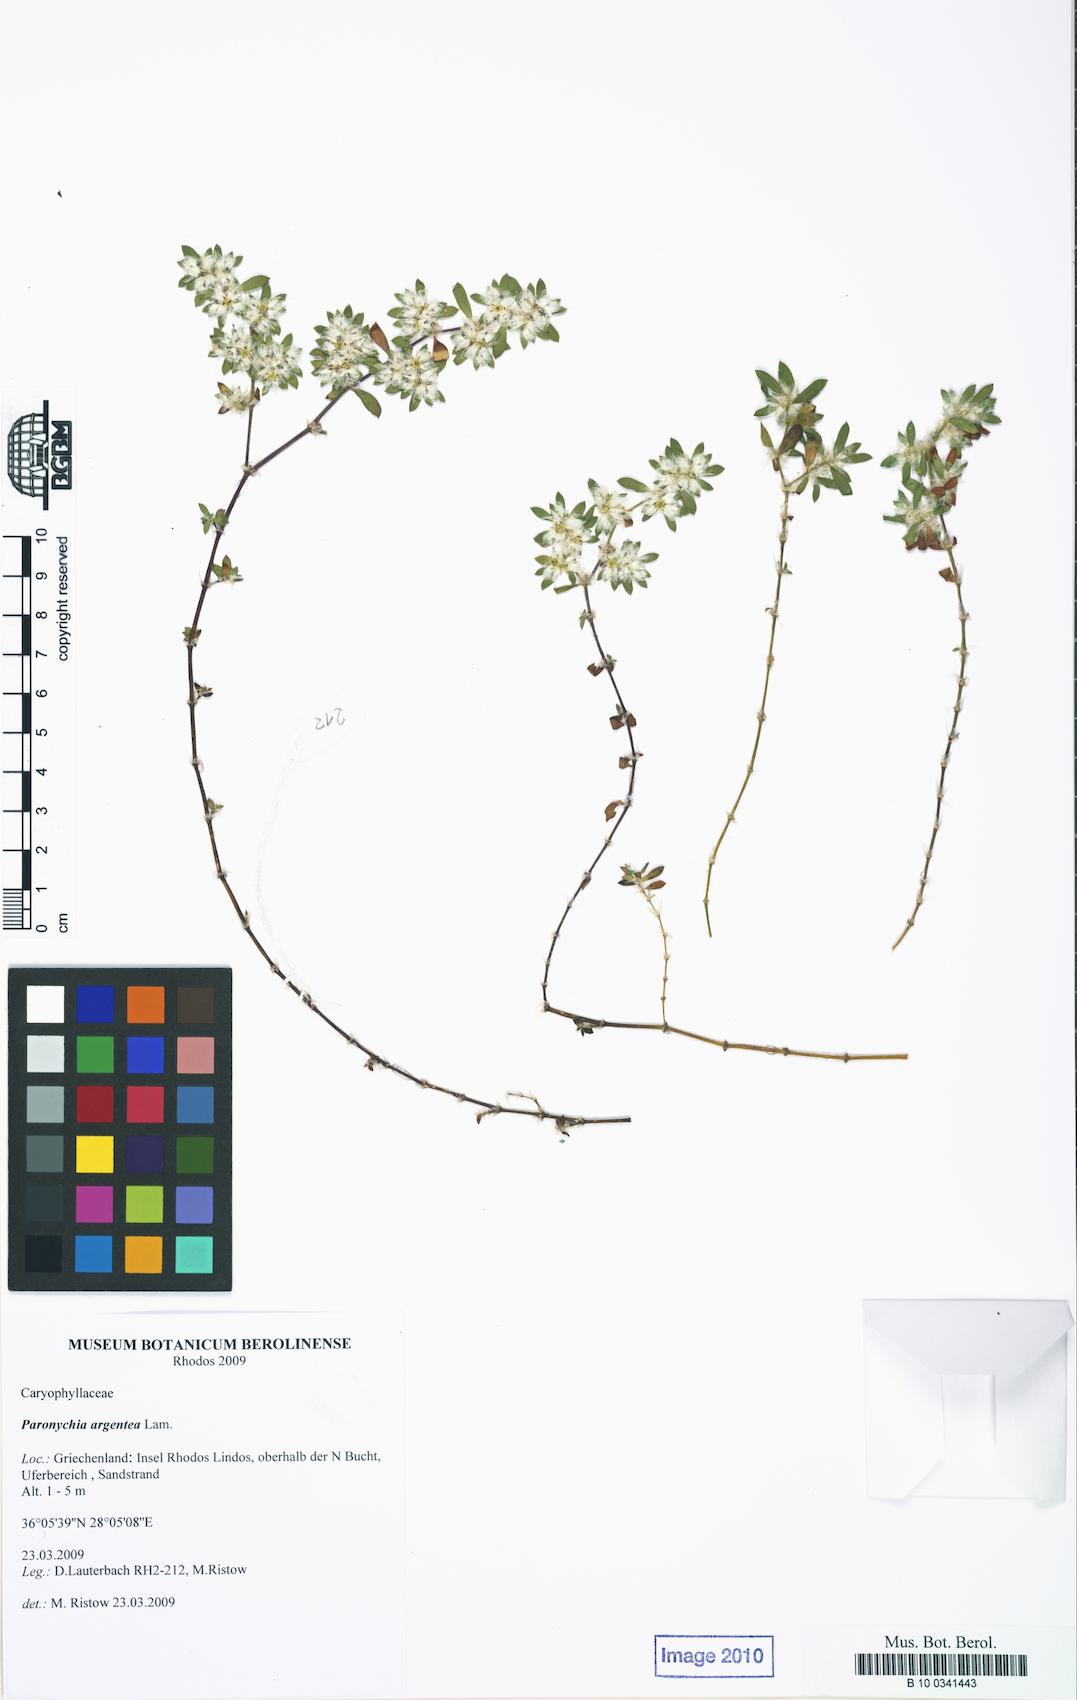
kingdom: Plantae
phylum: Tracheophyta
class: Magnoliopsida
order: Caryophyllales
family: Caryophyllaceae
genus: Paronychia
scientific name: Paronychia argentea
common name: Silver nailroot
